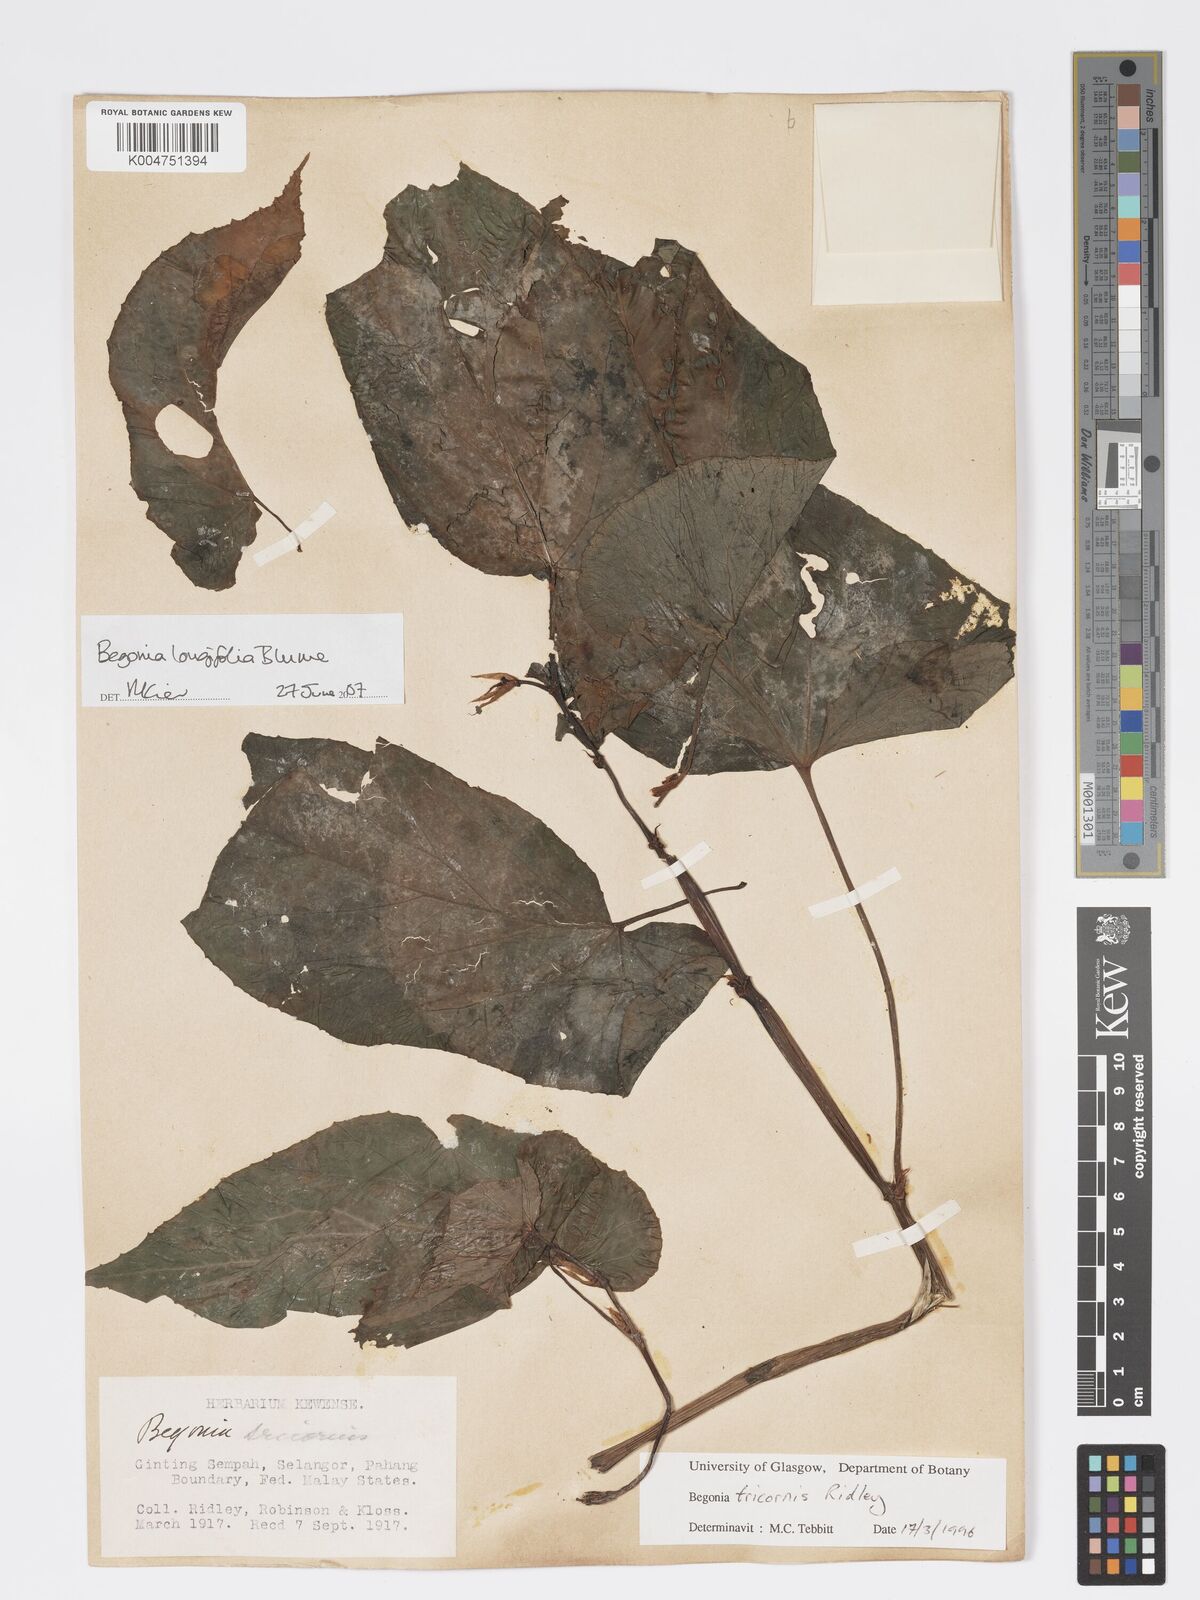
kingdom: Plantae
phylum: Tracheophyta
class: Magnoliopsida
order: Cucurbitales
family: Begoniaceae
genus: Begonia
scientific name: Begonia longifolia
